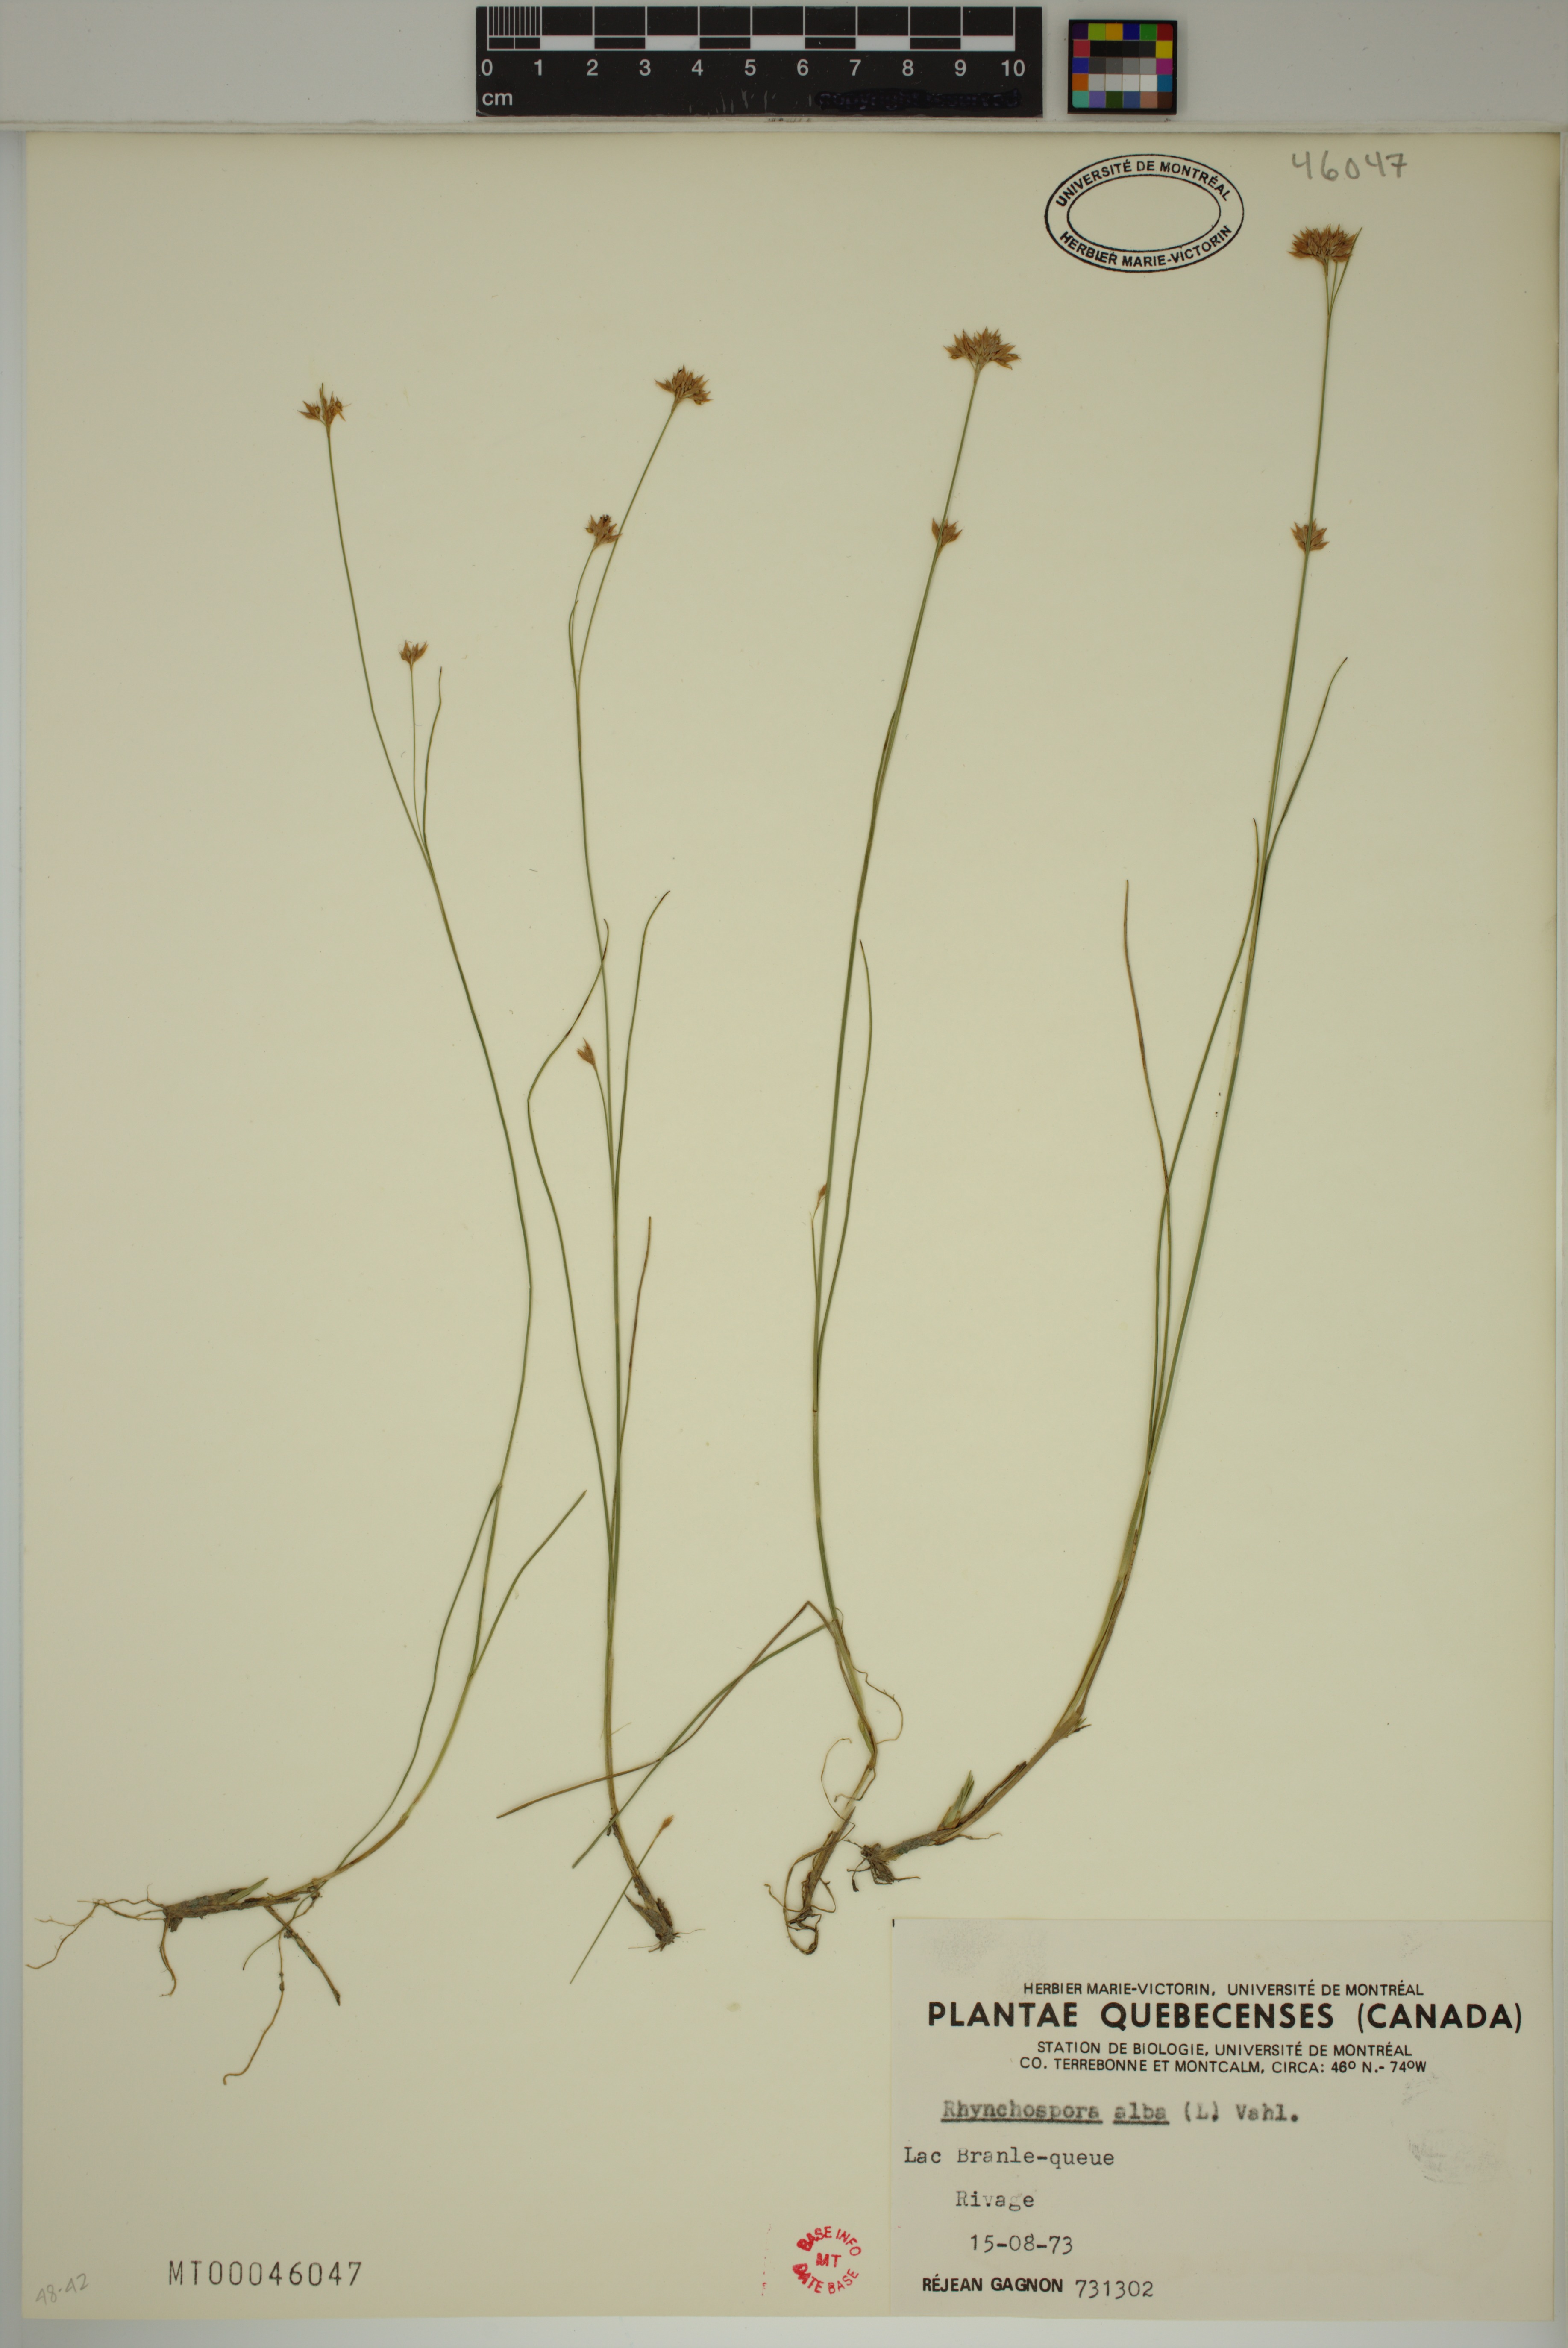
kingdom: Plantae
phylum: Tracheophyta
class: Liliopsida
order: Poales
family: Cyperaceae
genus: Rhynchospora
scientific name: Rhynchospora alba
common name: White beak-sedge
